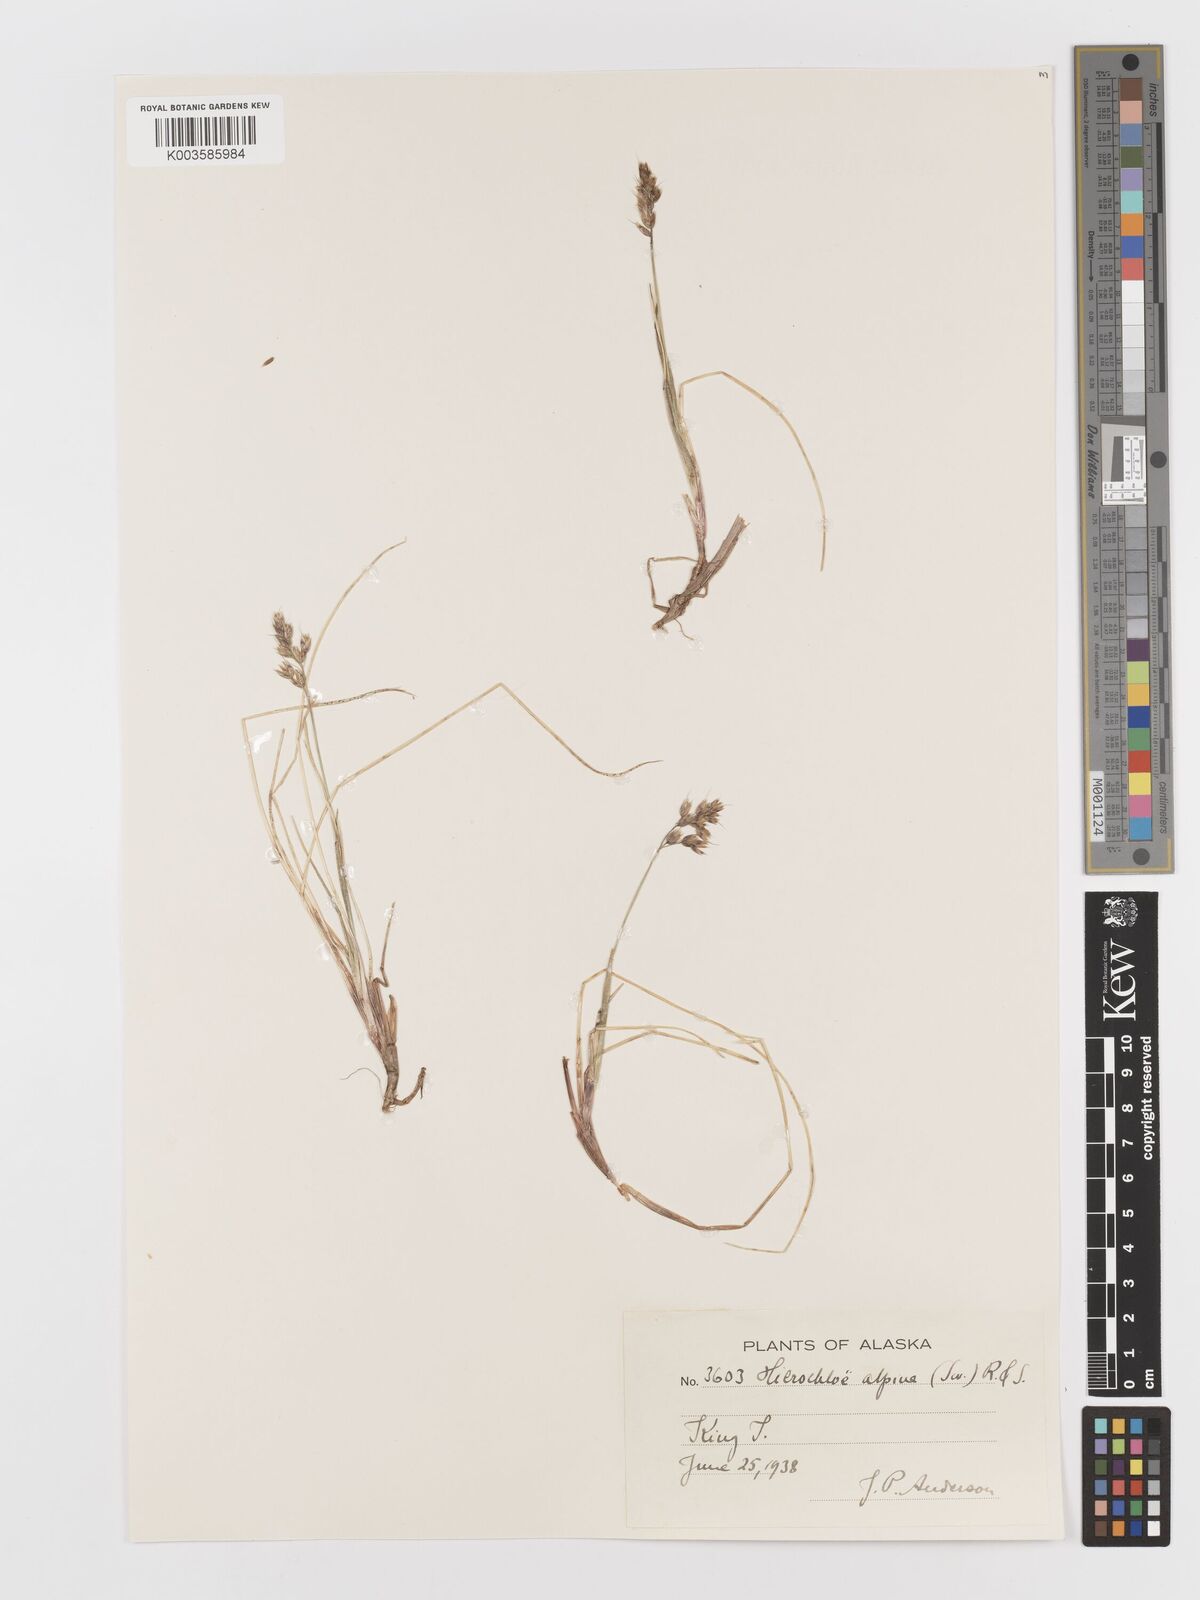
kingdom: Plantae
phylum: Tracheophyta
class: Liliopsida
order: Poales
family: Poaceae
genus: Anthoxanthum
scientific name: Anthoxanthum monticola
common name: Alpine sweetgrass
